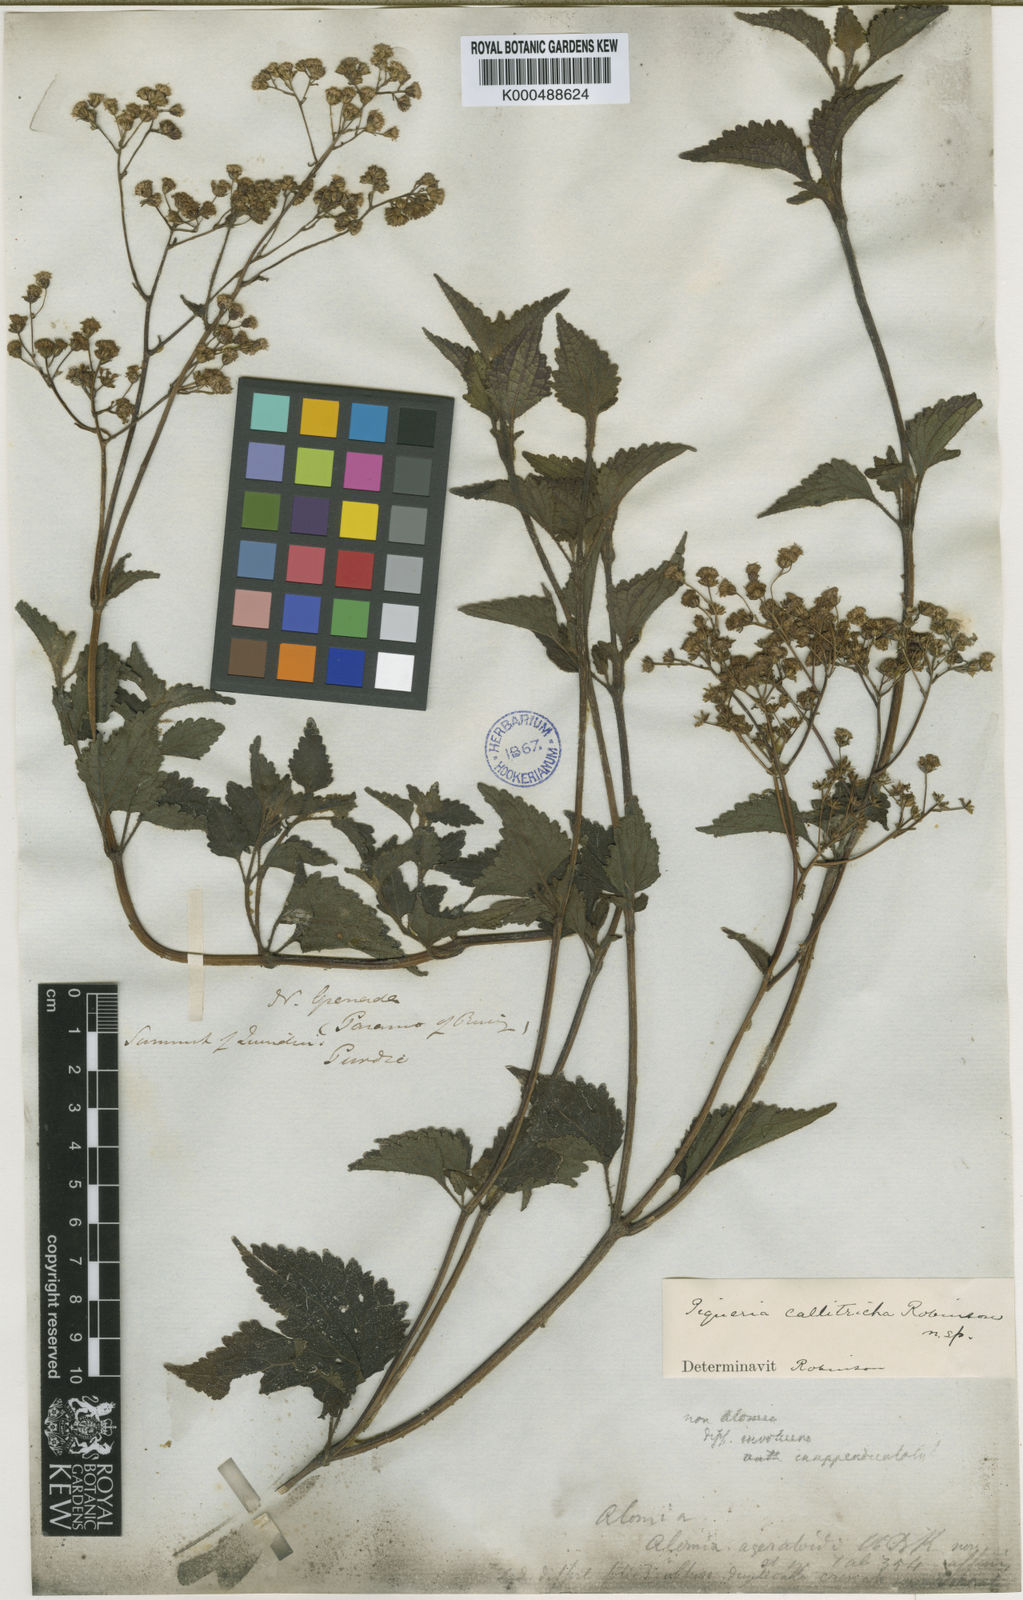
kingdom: Plantae
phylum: Tracheophyta
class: Magnoliopsida
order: Asterales
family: Asteraceae
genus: Phalacraea
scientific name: Phalacraea callitricha
